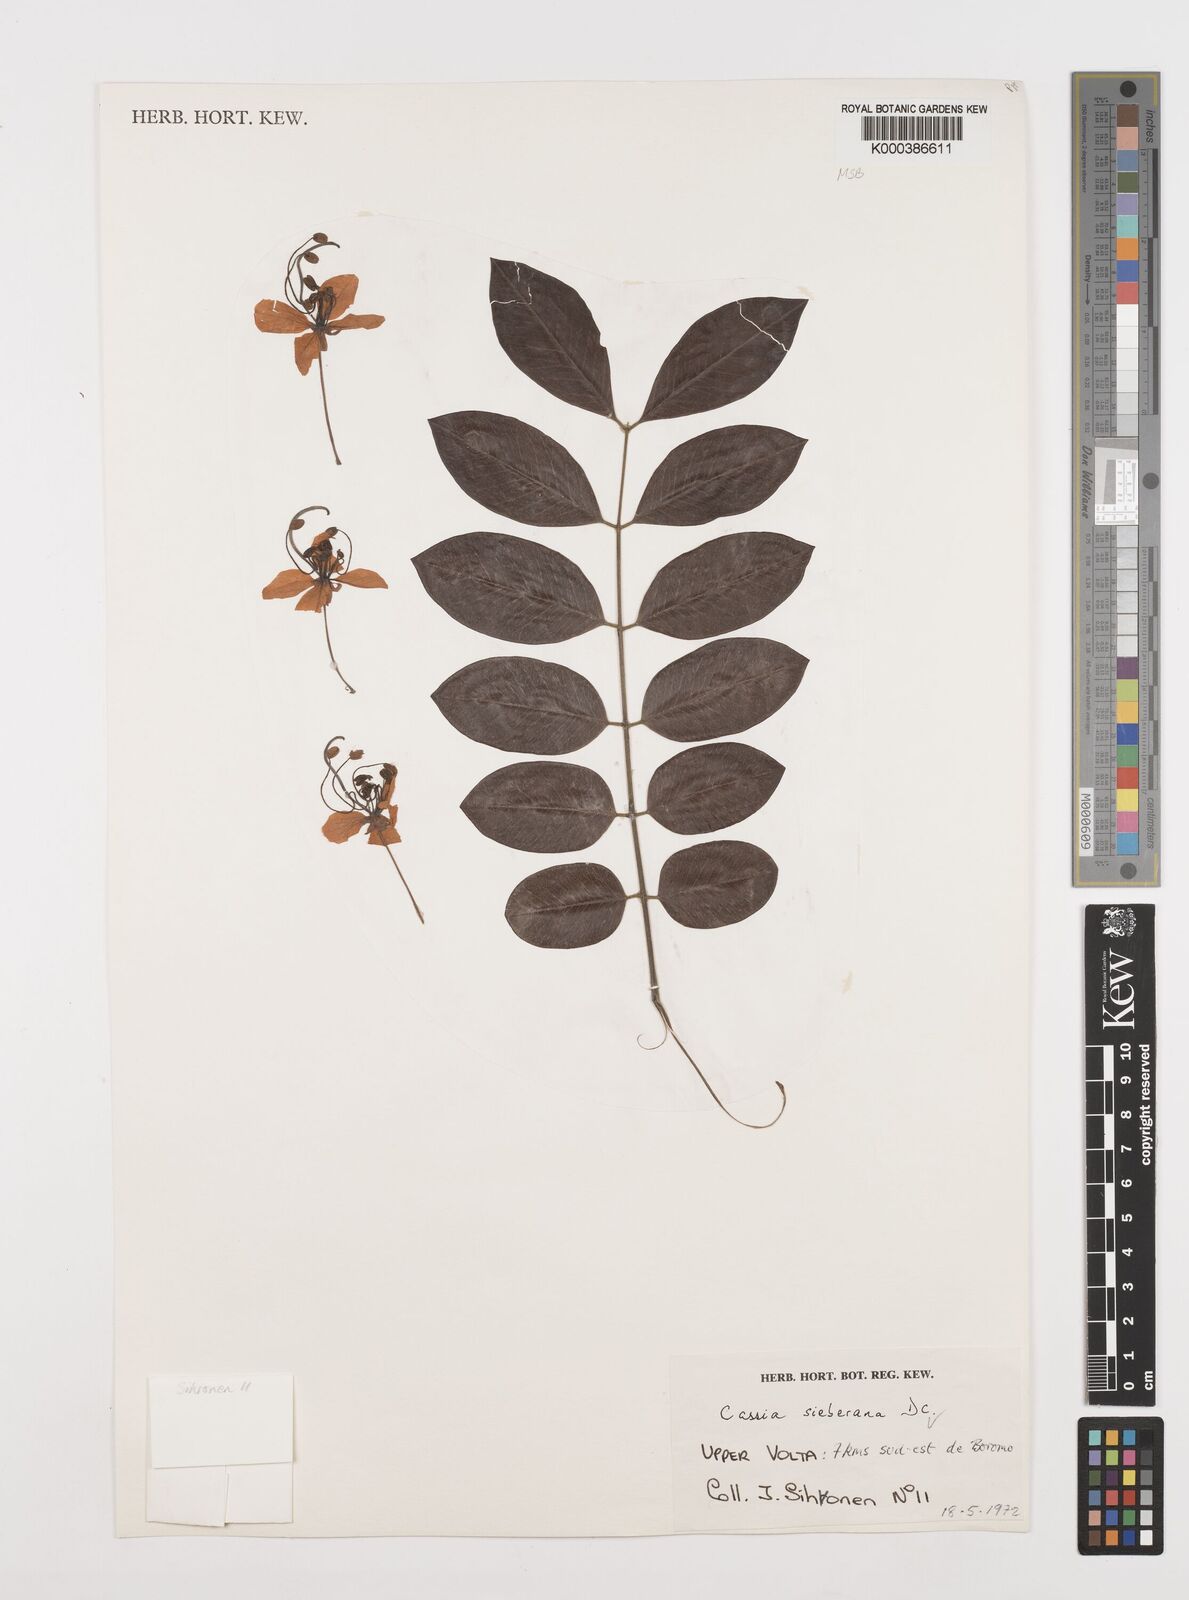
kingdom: Plantae
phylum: Tracheophyta
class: Magnoliopsida
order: Fabales
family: Fabaceae
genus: Cassia
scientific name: Cassia sieberiana
